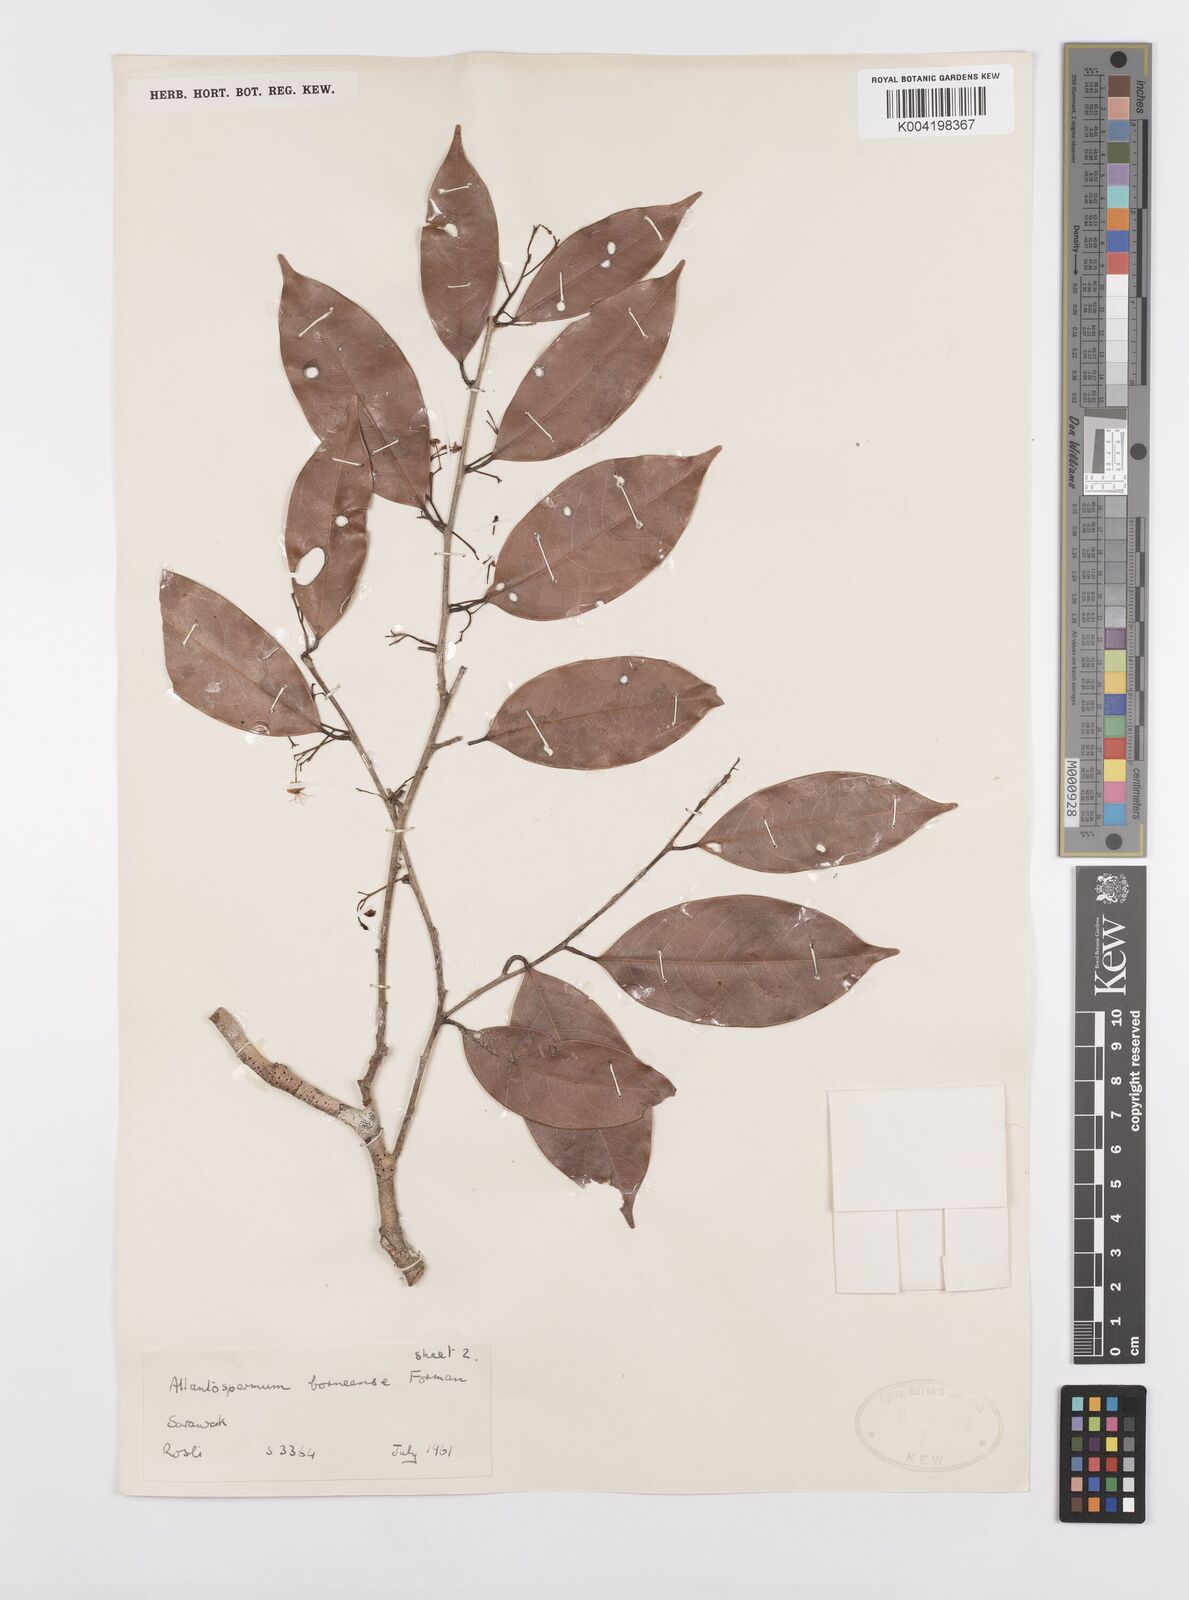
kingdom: Plantae
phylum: Tracheophyta
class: Magnoliopsida
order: Malpighiales
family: Ixonanthaceae
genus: Allantospermum
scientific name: Allantospermum borneense
